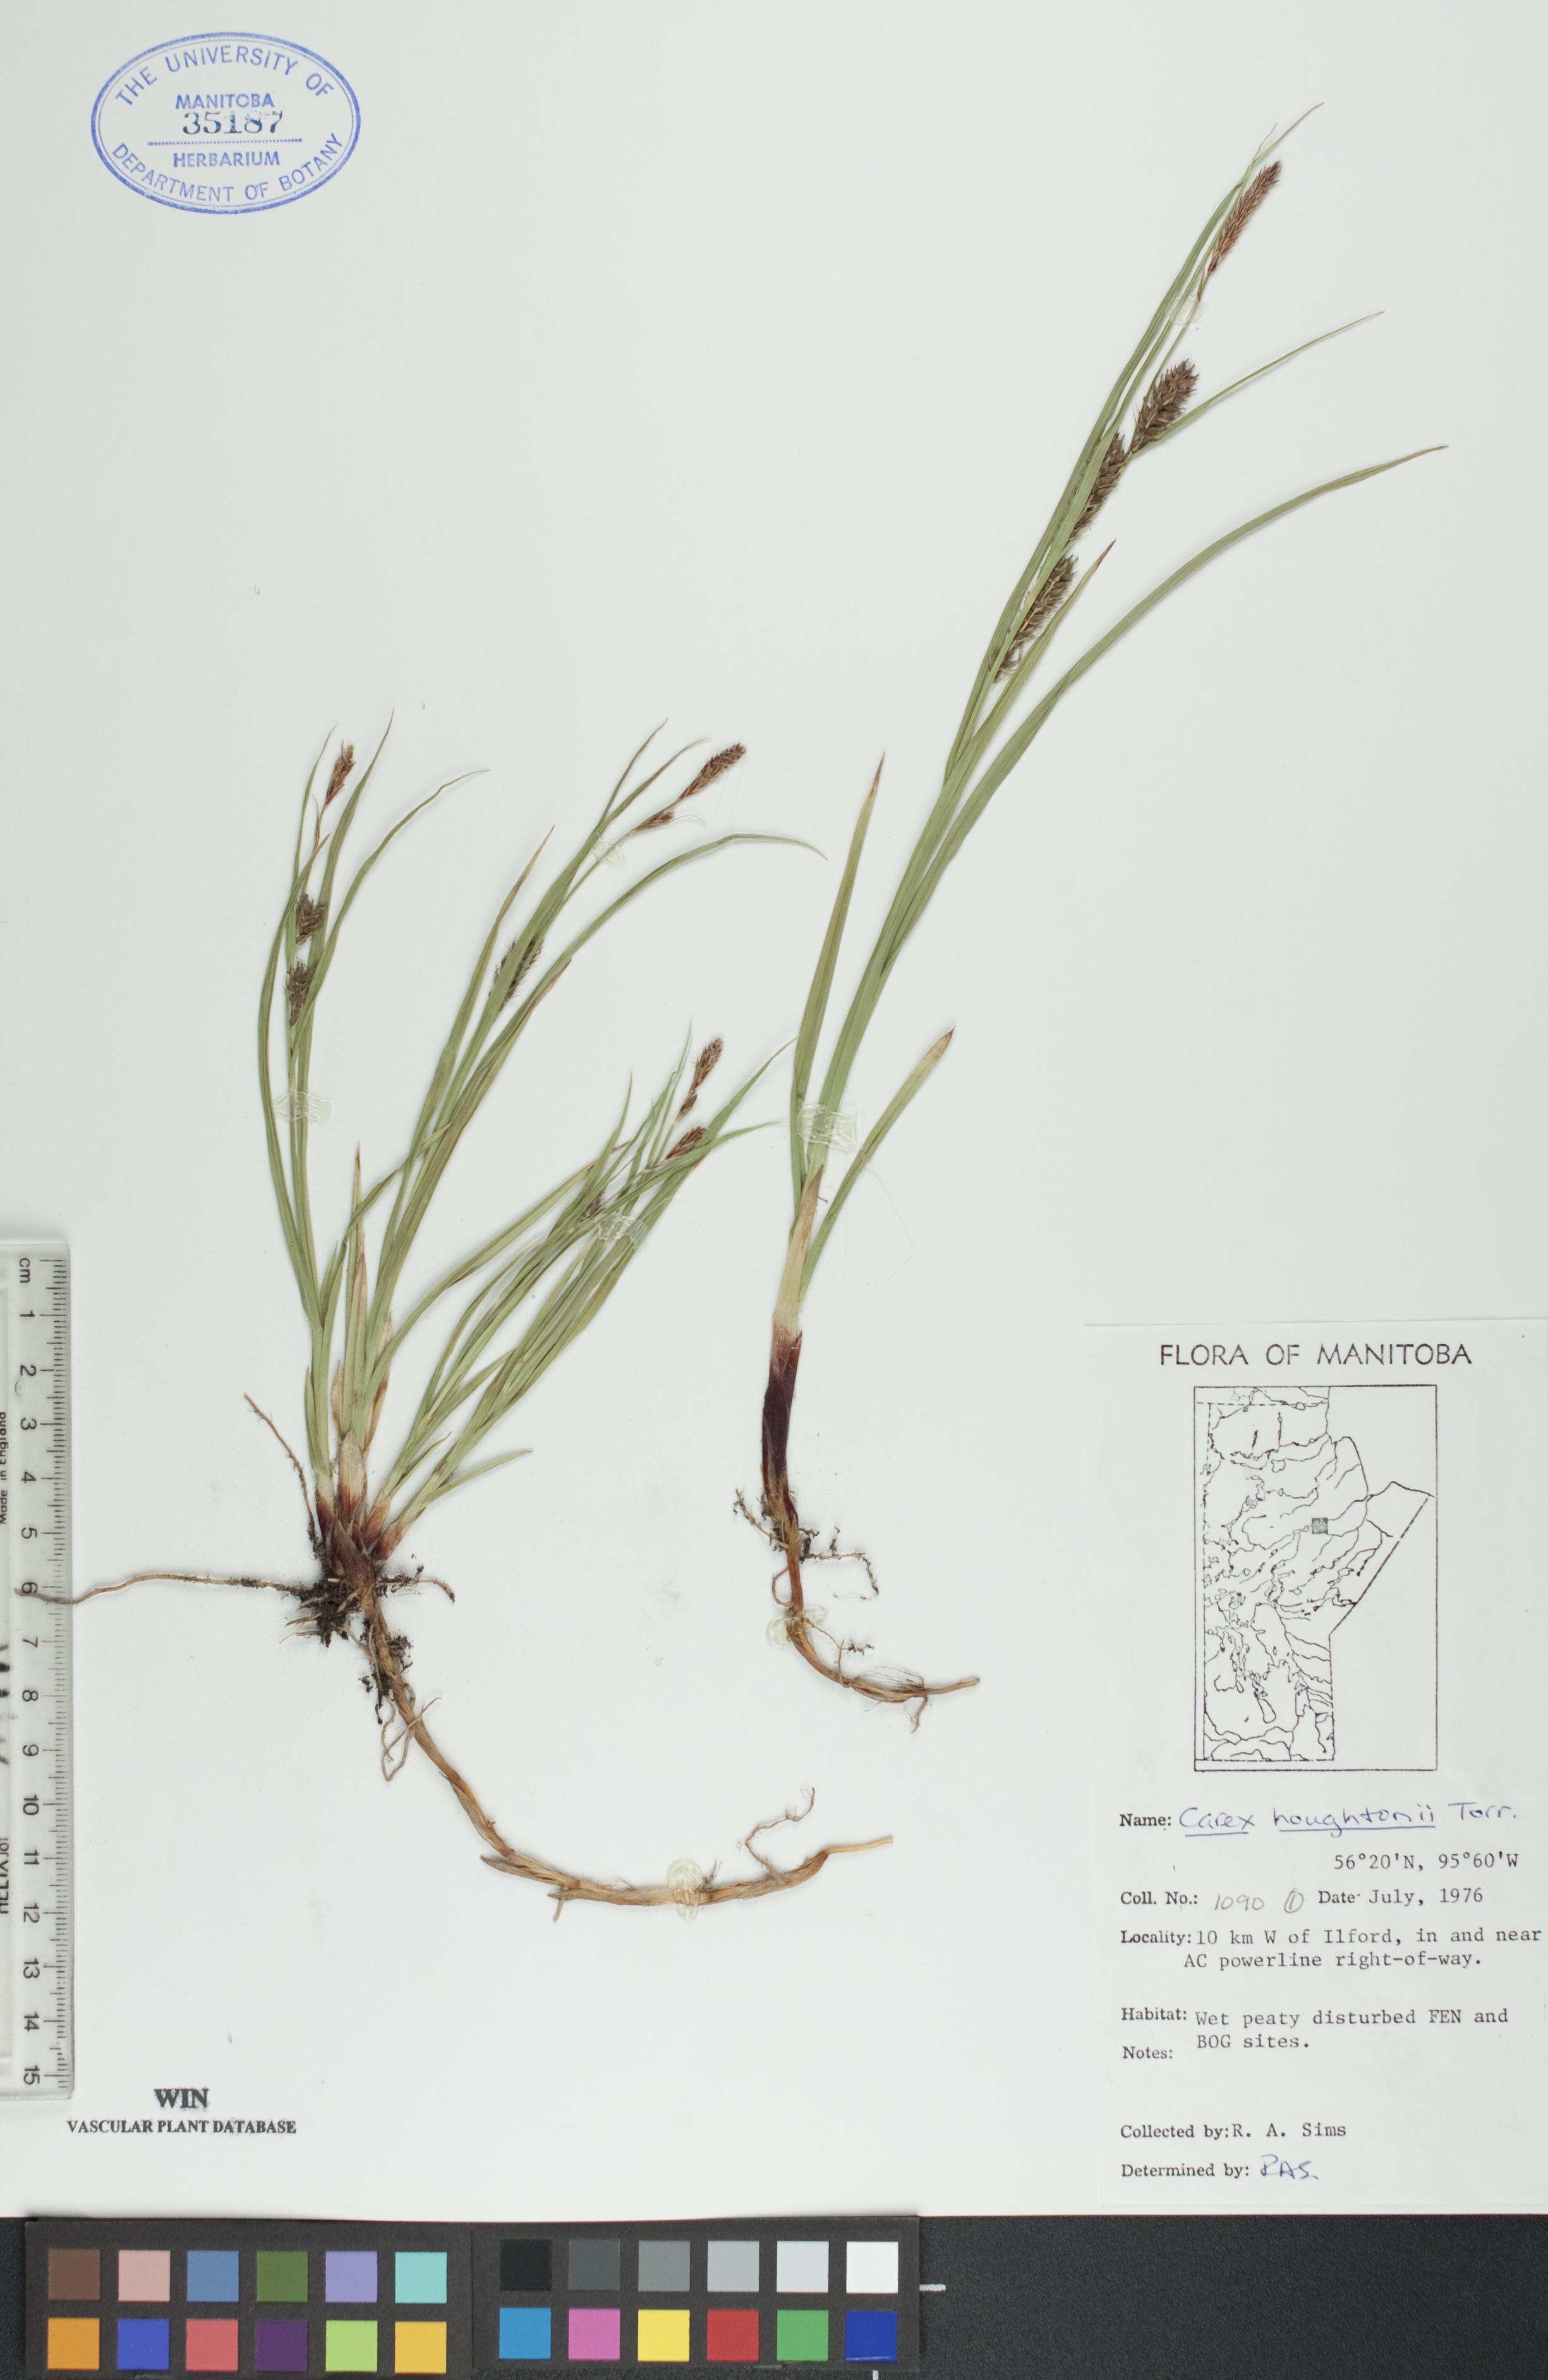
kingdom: Plantae
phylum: Tracheophyta
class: Liliopsida
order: Poales
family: Cyperaceae
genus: Carex
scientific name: Carex houghtoniana
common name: Houghton's sedge
